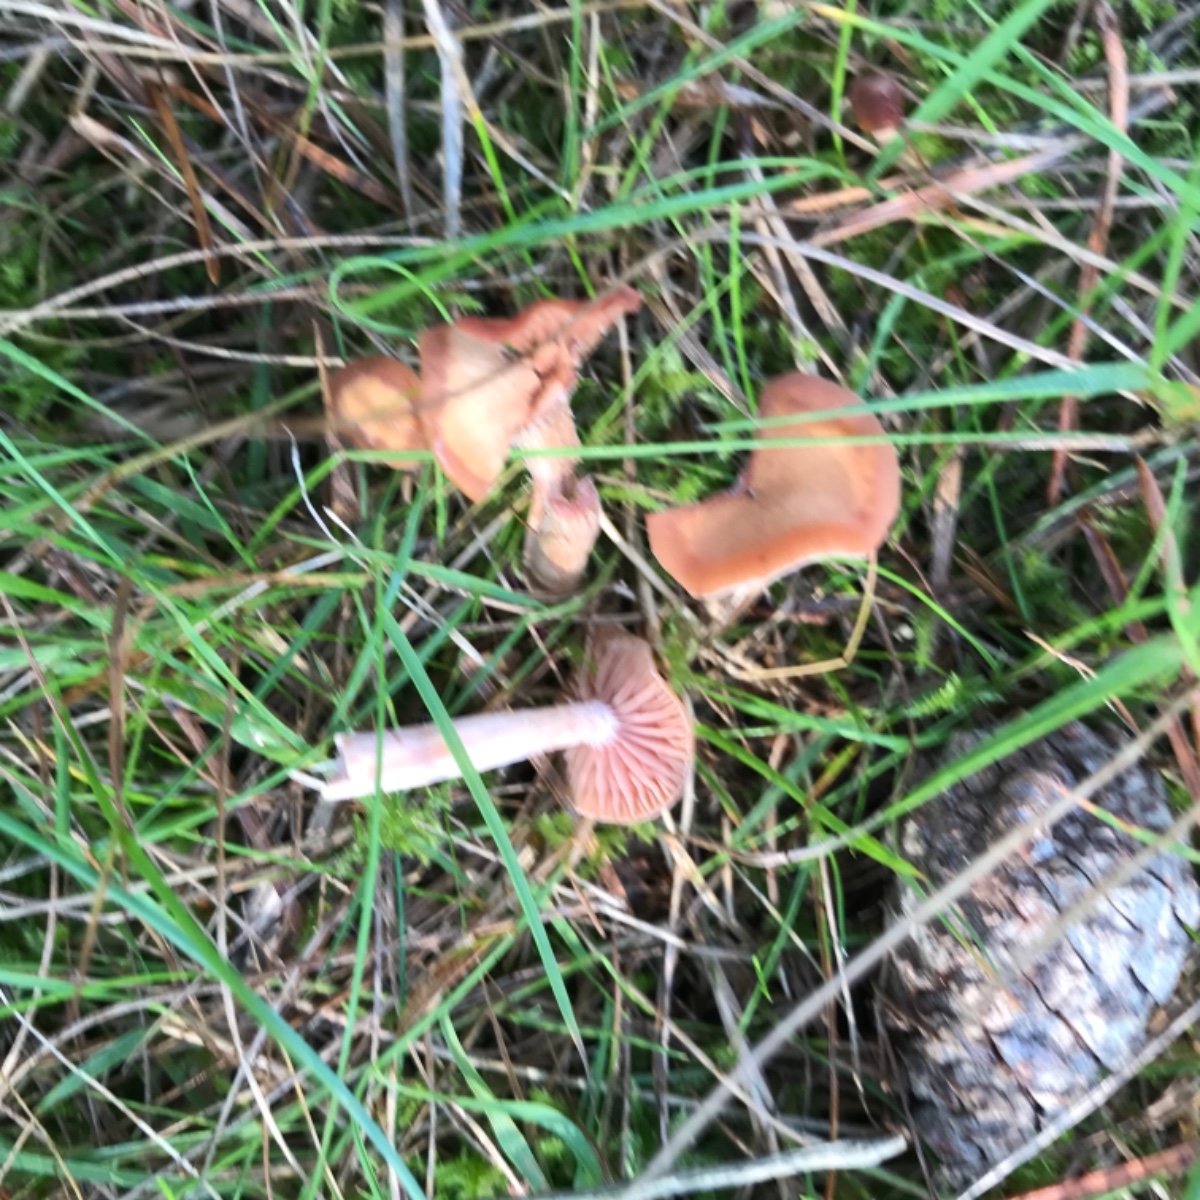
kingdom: Fungi
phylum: Basidiomycota
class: Agaricomycetes
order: Agaricales
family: Hydnangiaceae
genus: Laccaria
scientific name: Laccaria laccata
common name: rød ametysthat
